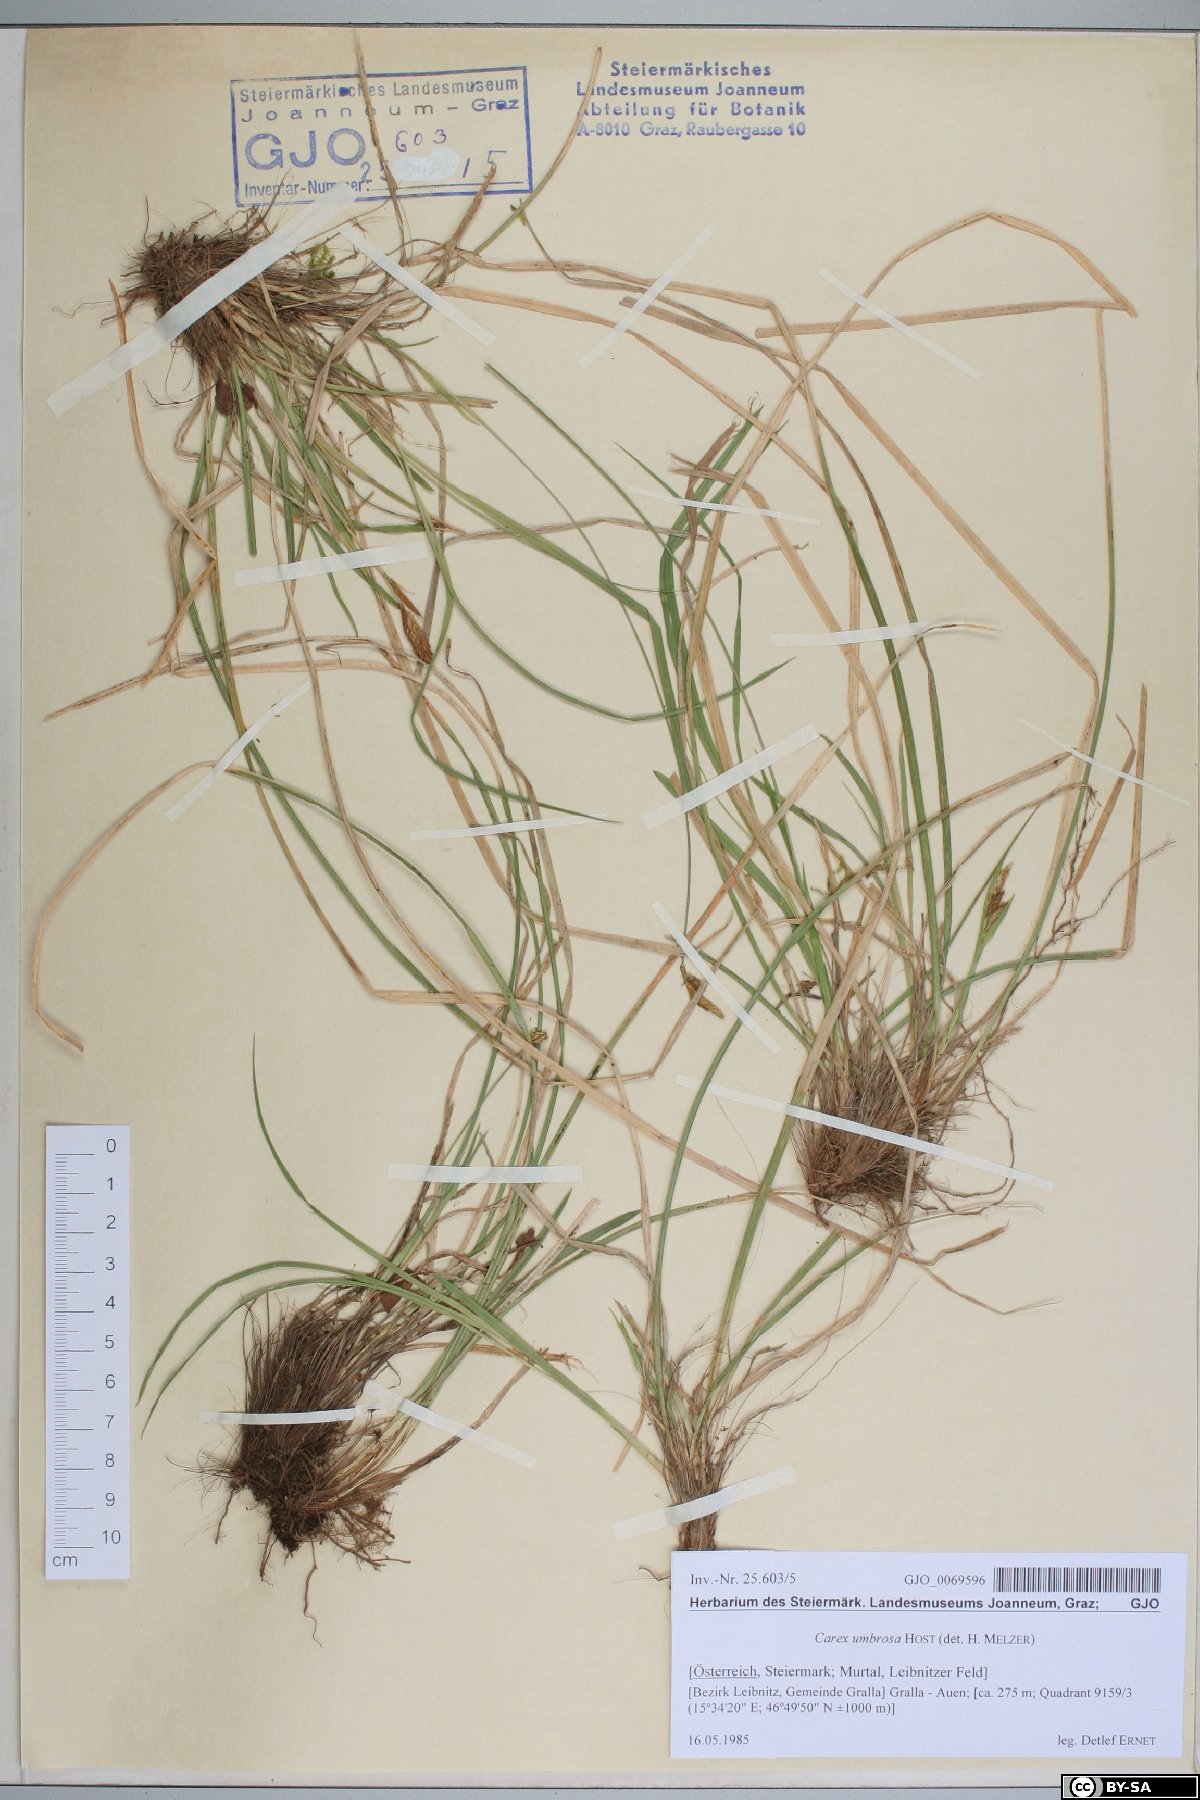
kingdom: Plantae
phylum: Tracheophyta
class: Liliopsida
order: Poales
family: Cyperaceae
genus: Carex
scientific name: Carex umbrosa
